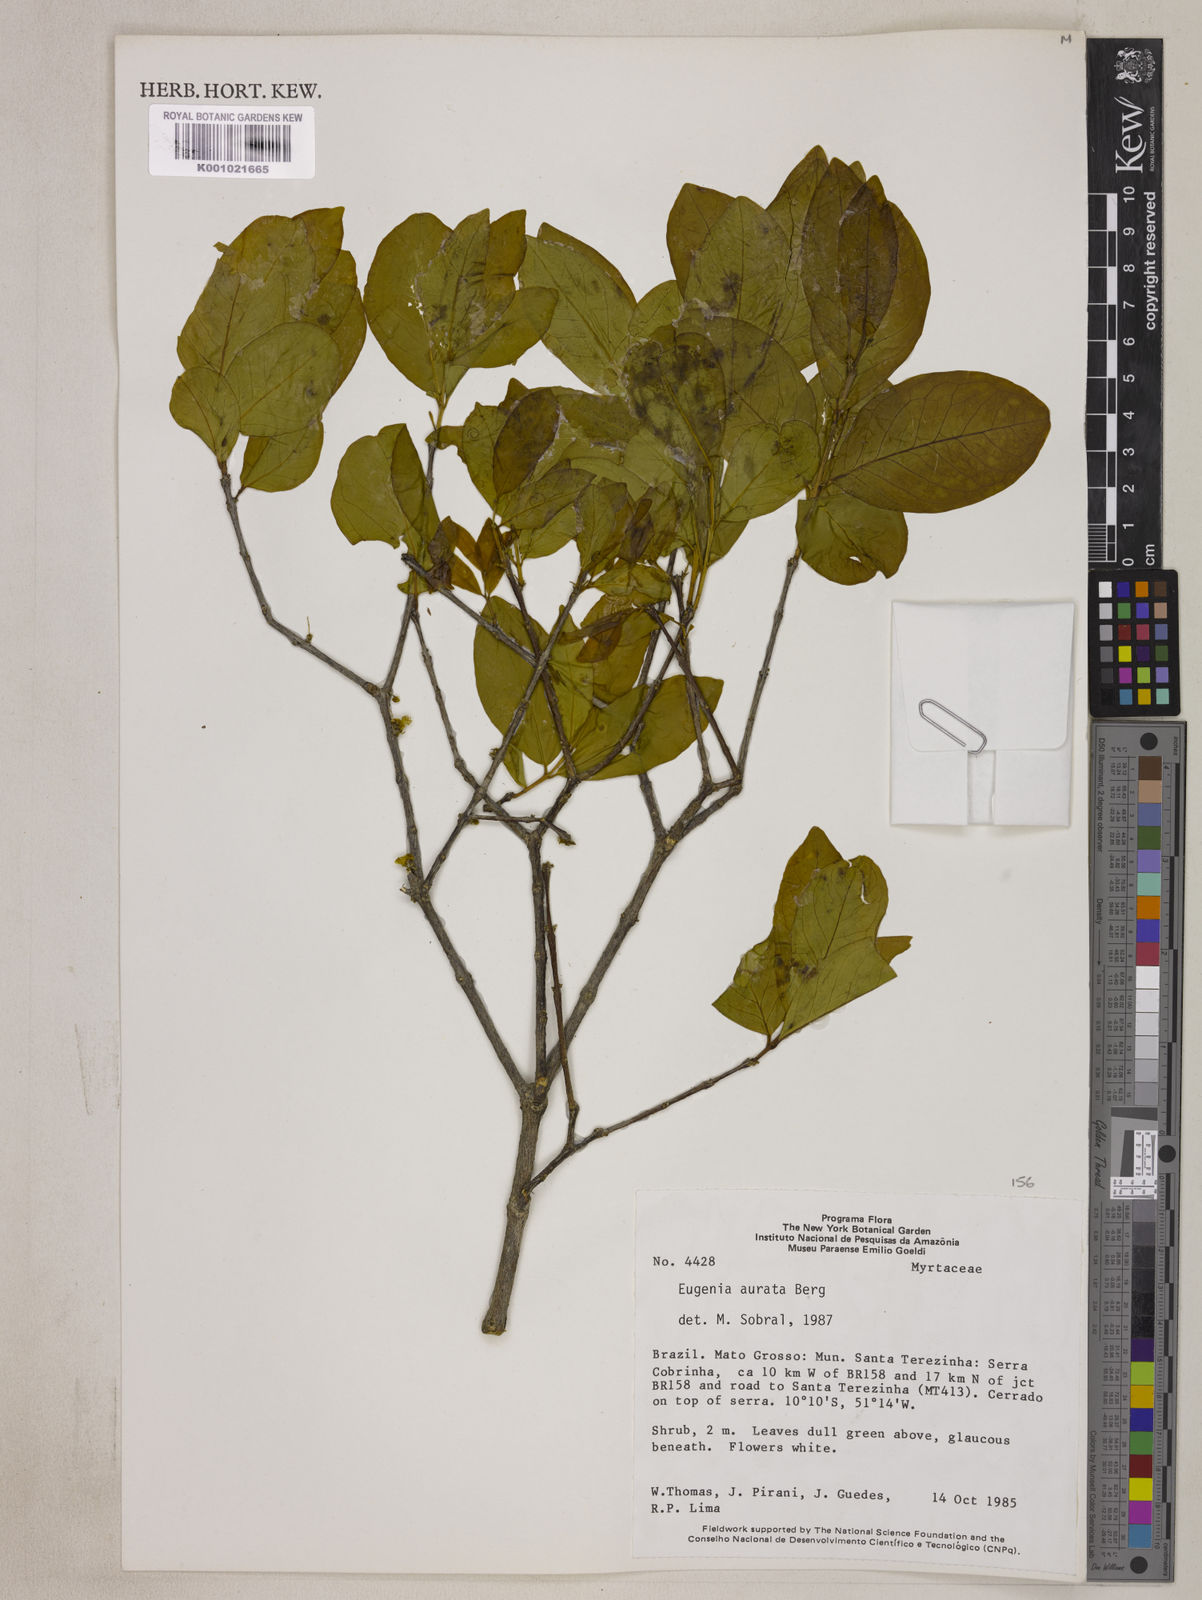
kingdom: Plantae
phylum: Tracheophyta
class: Magnoliopsida
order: Myrtales
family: Myrtaceae
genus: Eugenia
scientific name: Eugenia aurata
